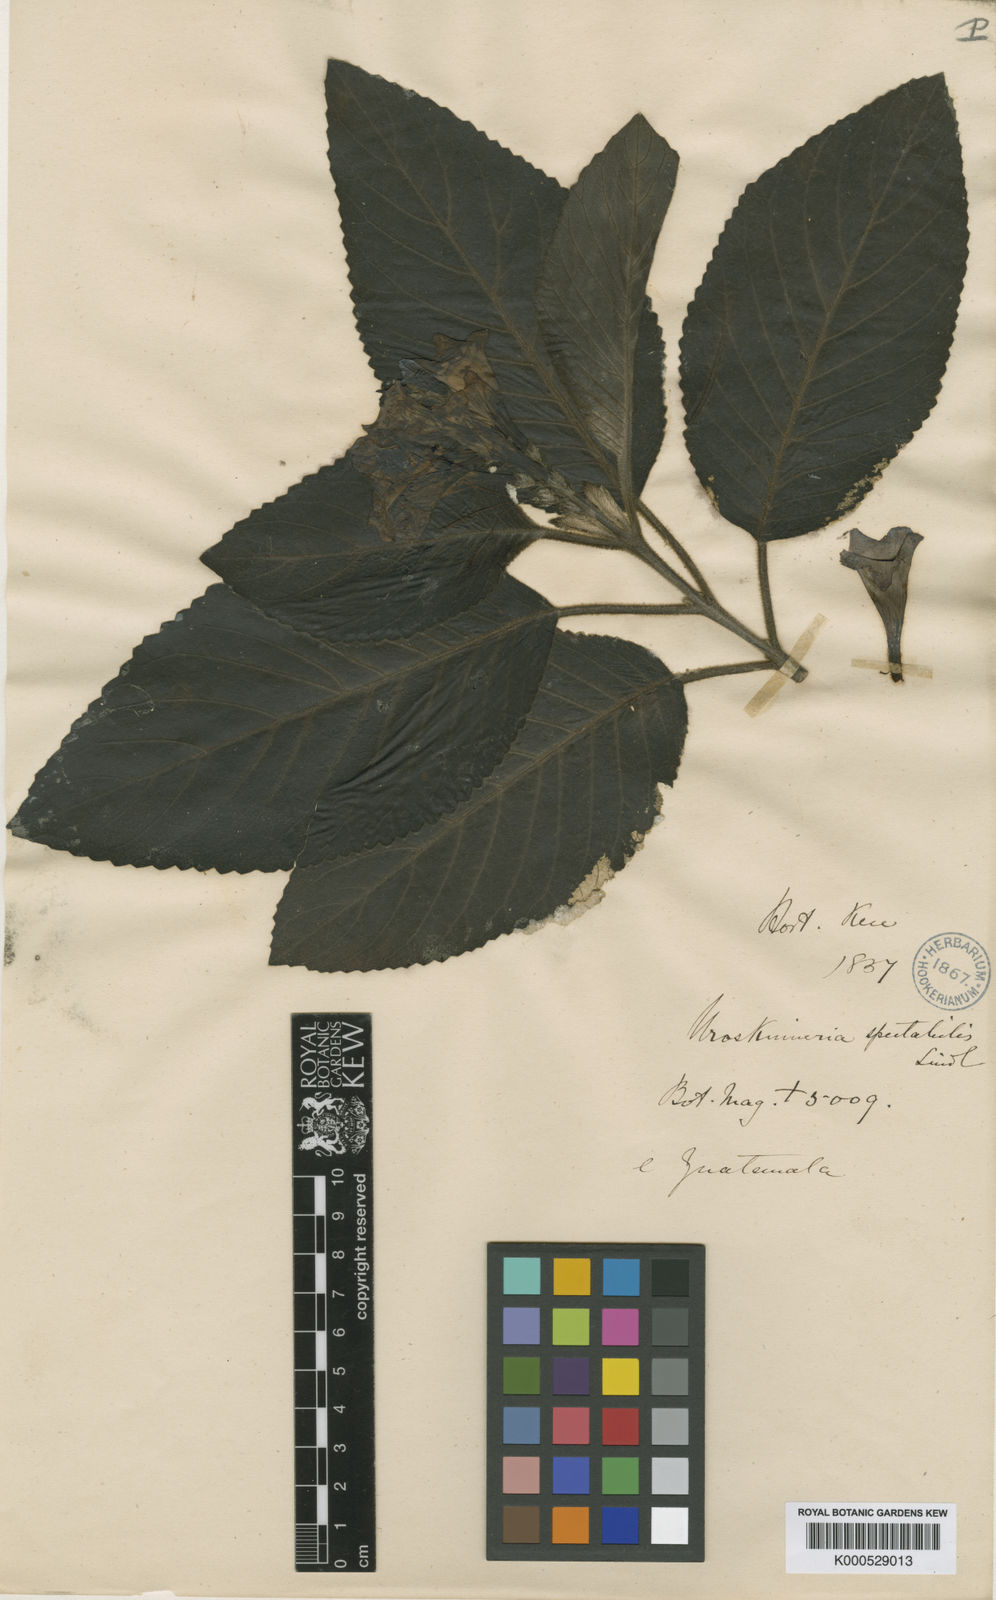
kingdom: Plantae
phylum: Tracheophyta
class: Magnoliopsida
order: Lamiales
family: Plantaginaceae
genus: Uroskinnera
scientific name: Uroskinnera spectabilis
